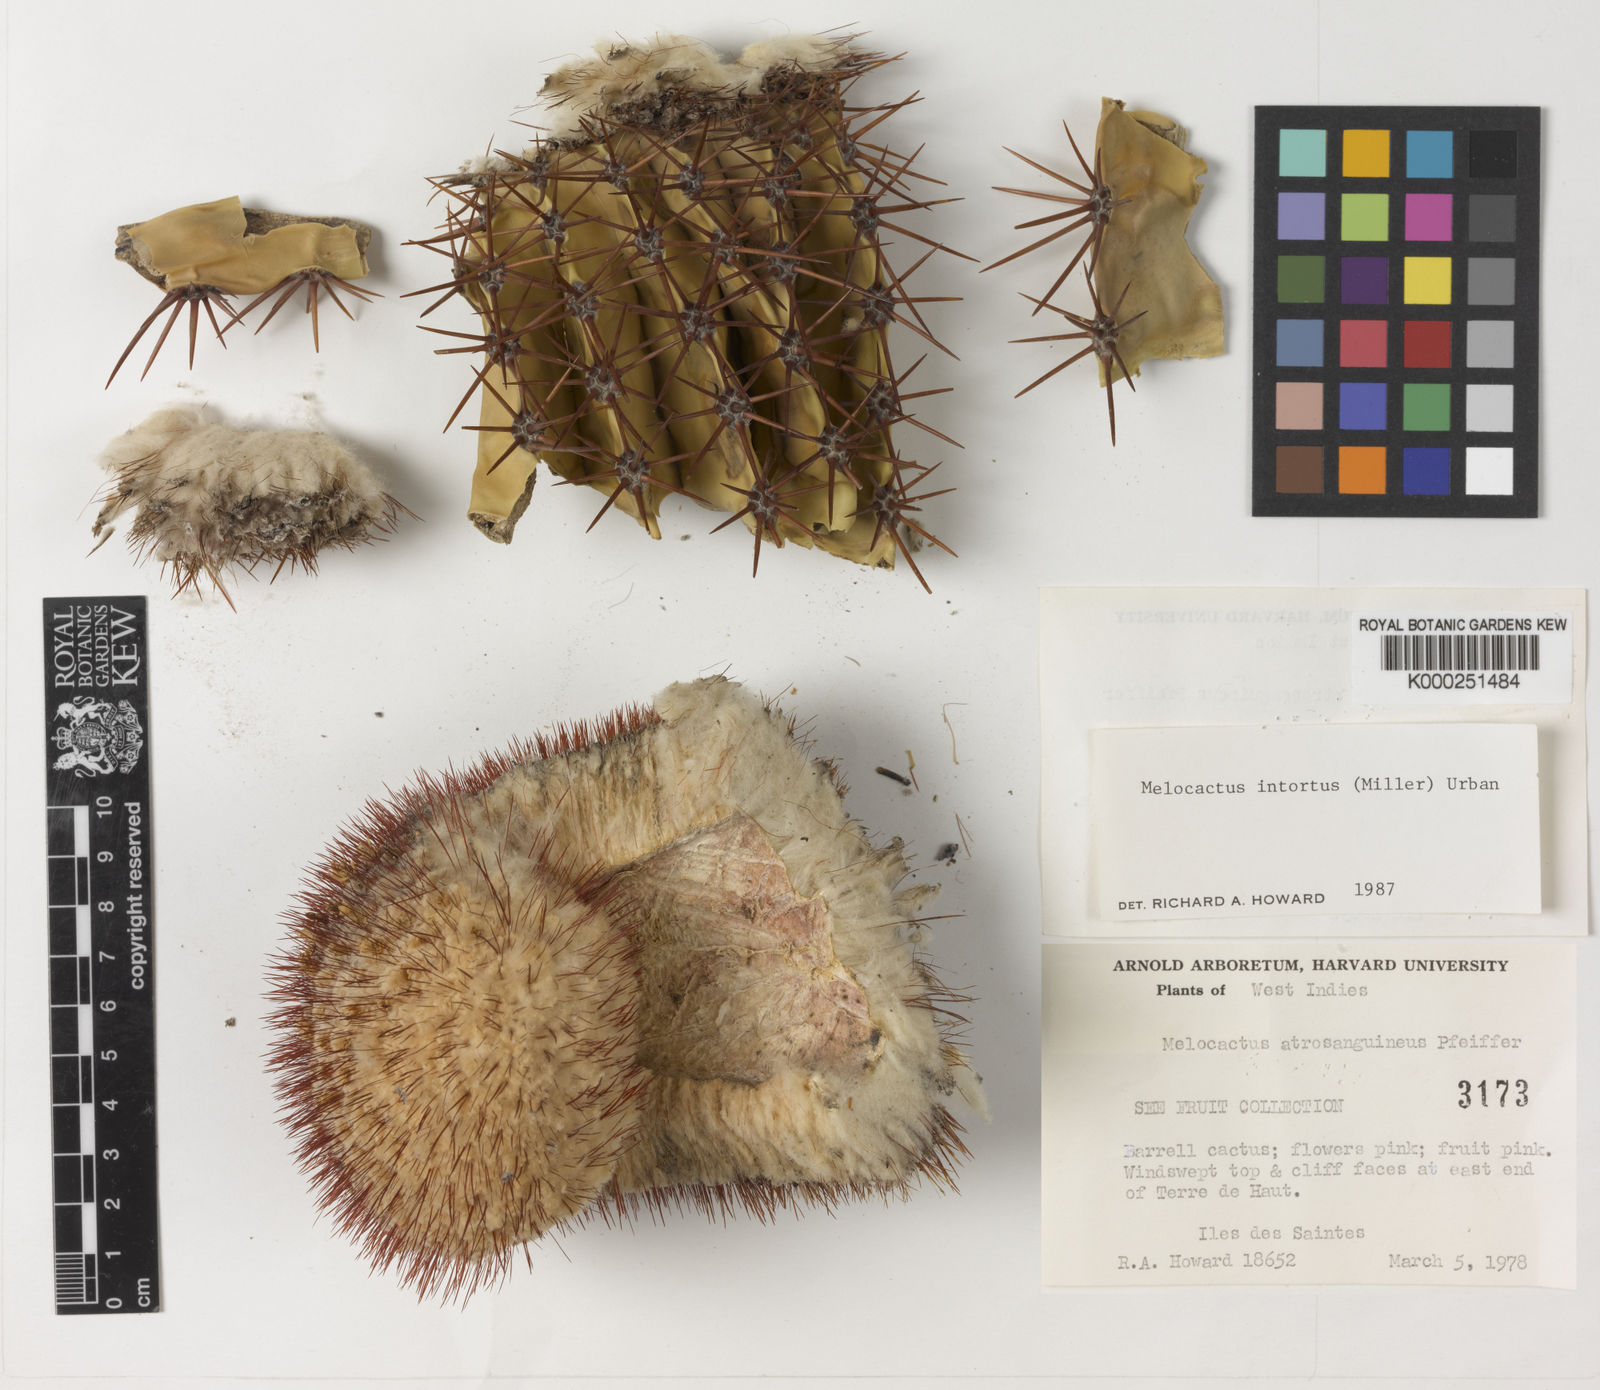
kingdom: Plantae
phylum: Tracheophyta
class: Magnoliopsida
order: Caryophyllales
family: Cactaceae
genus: Melocactus
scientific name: Melocactus
